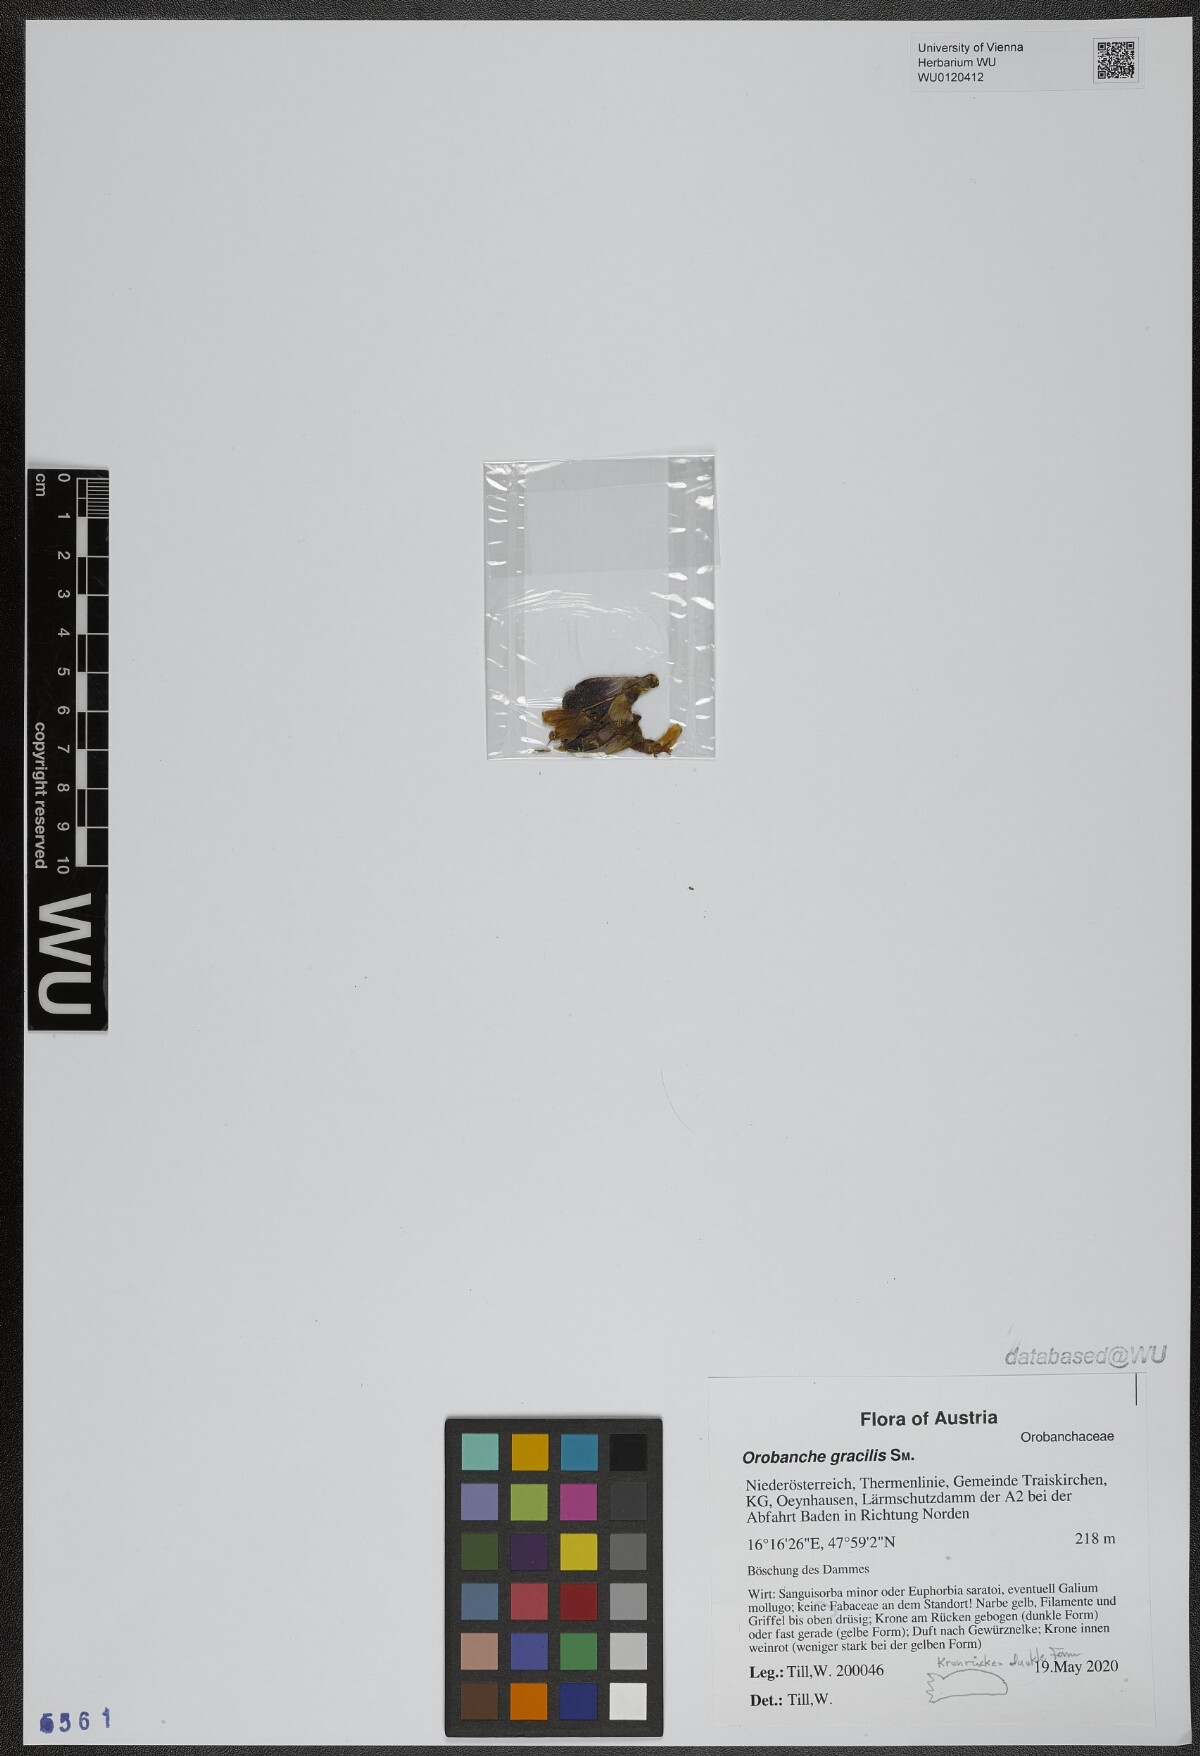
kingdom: Plantae
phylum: Tracheophyta
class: Magnoliopsida
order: Lamiales
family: Orobanchaceae
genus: Orobanche
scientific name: Orobanche gracilis
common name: Slender broomrape
